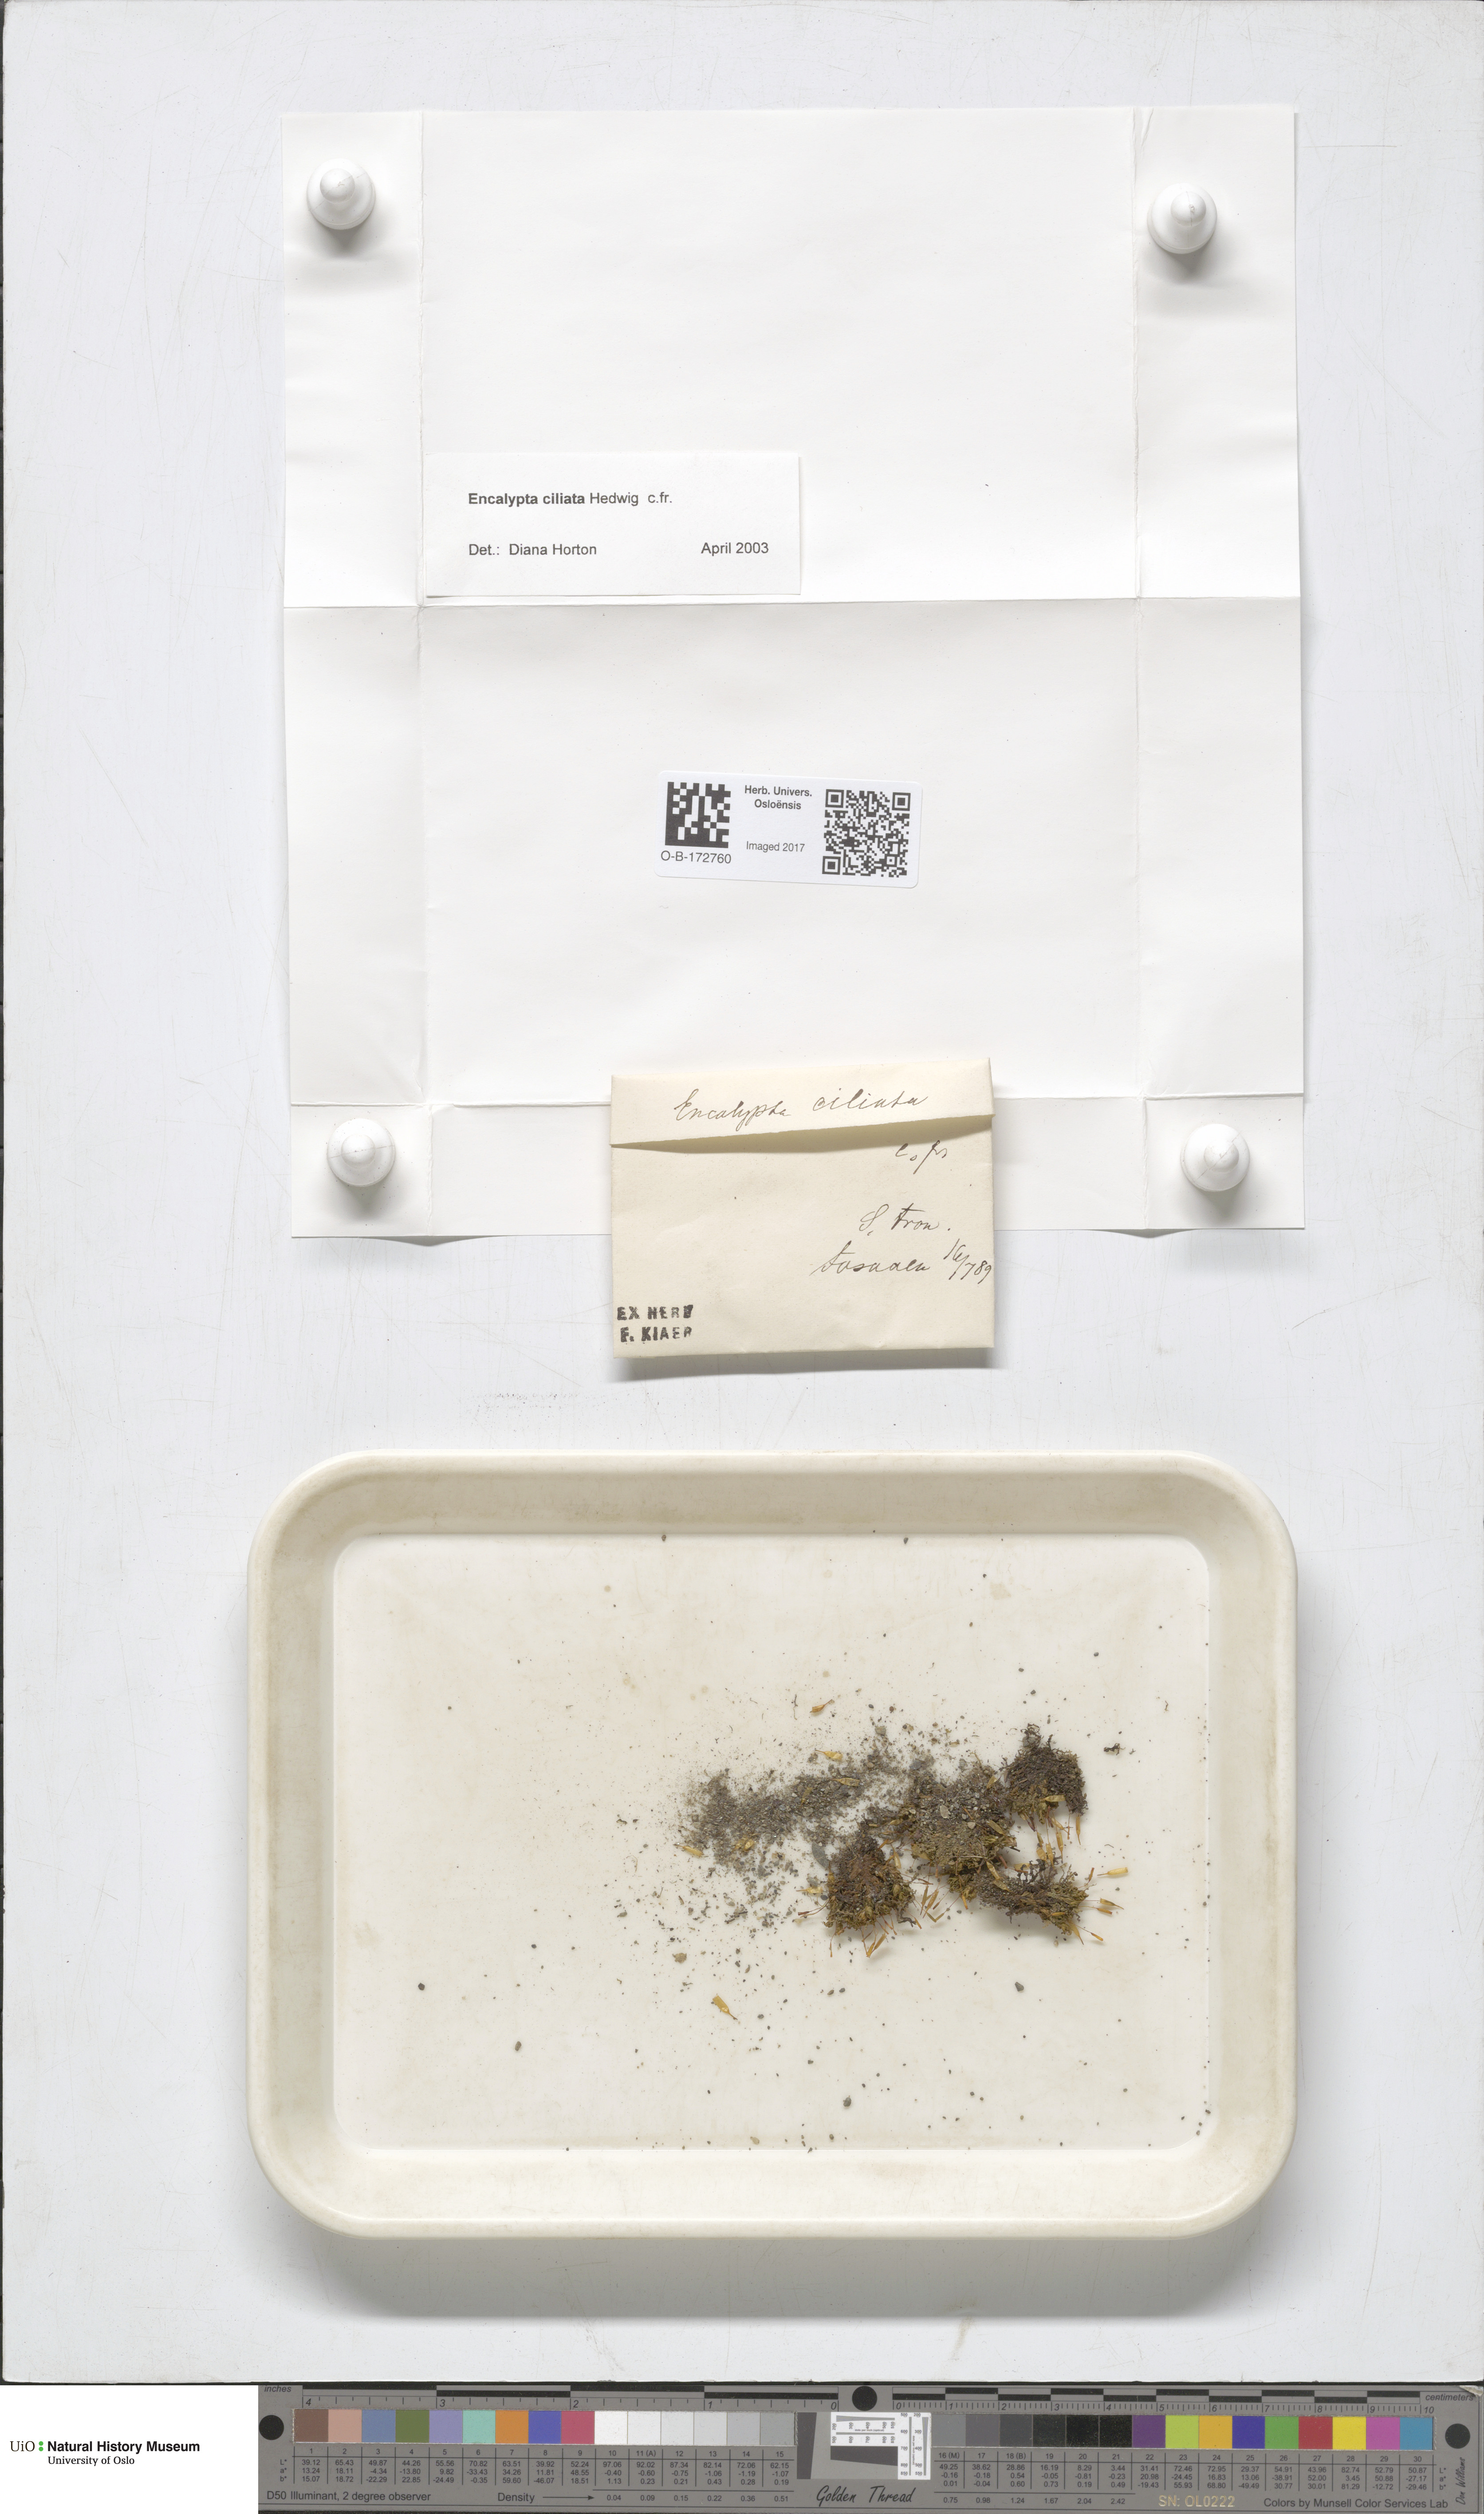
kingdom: Plantae
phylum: Bryophyta
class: Bryopsida
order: Encalyptales
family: Encalyptaceae
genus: Encalypta
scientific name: Encalypta ciliata
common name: Fringed extinguisher-moss
